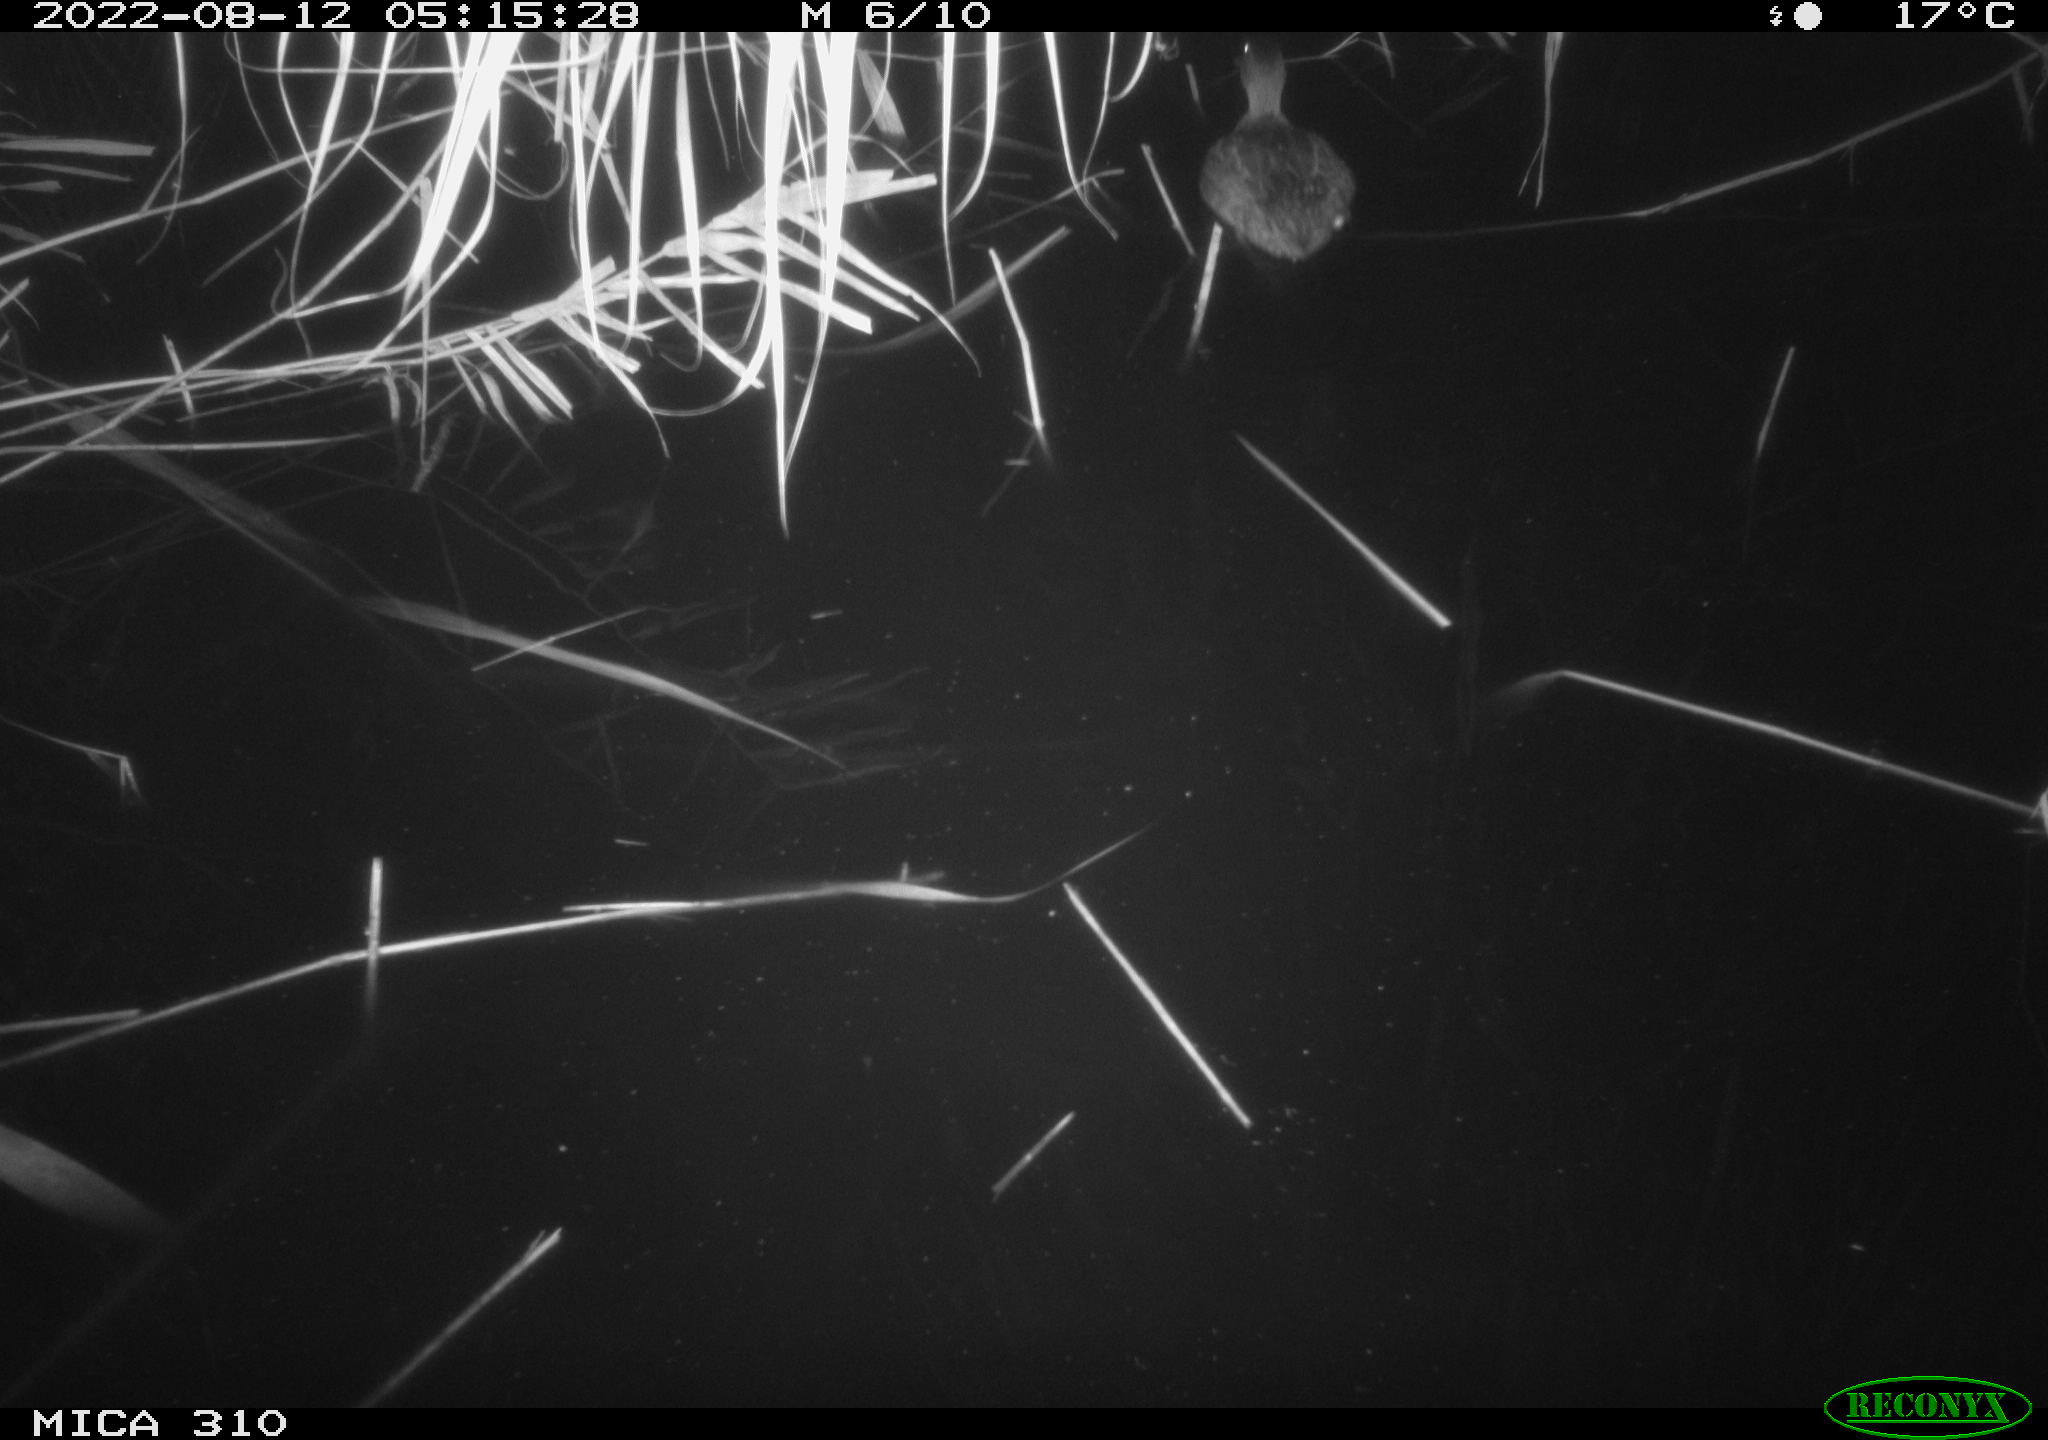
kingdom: Animalia
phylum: Chordata
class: Aves
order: Gruiformes
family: Rallidae
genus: Fulica
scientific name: Fulica atra
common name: Eurasian coot
